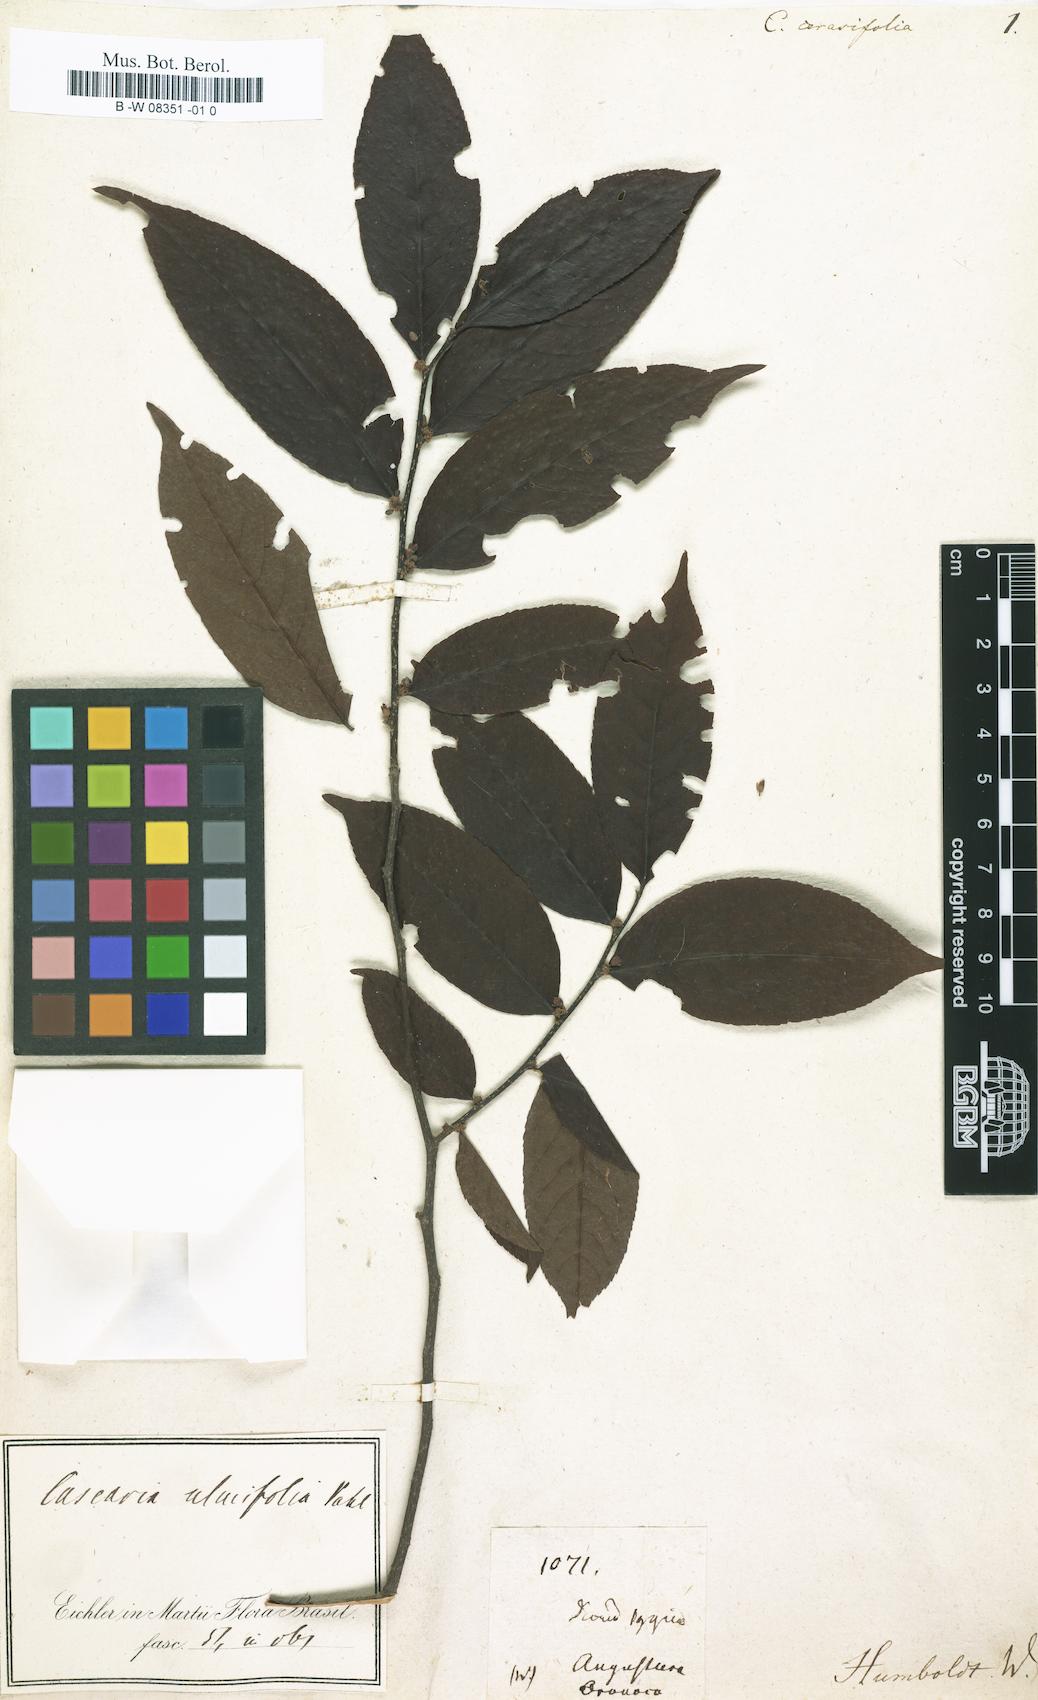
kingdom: Plantae
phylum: Tracheophyta
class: Magnoliopsida
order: Malpighiales
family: Salicaceae
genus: Casearia
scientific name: Casearia
